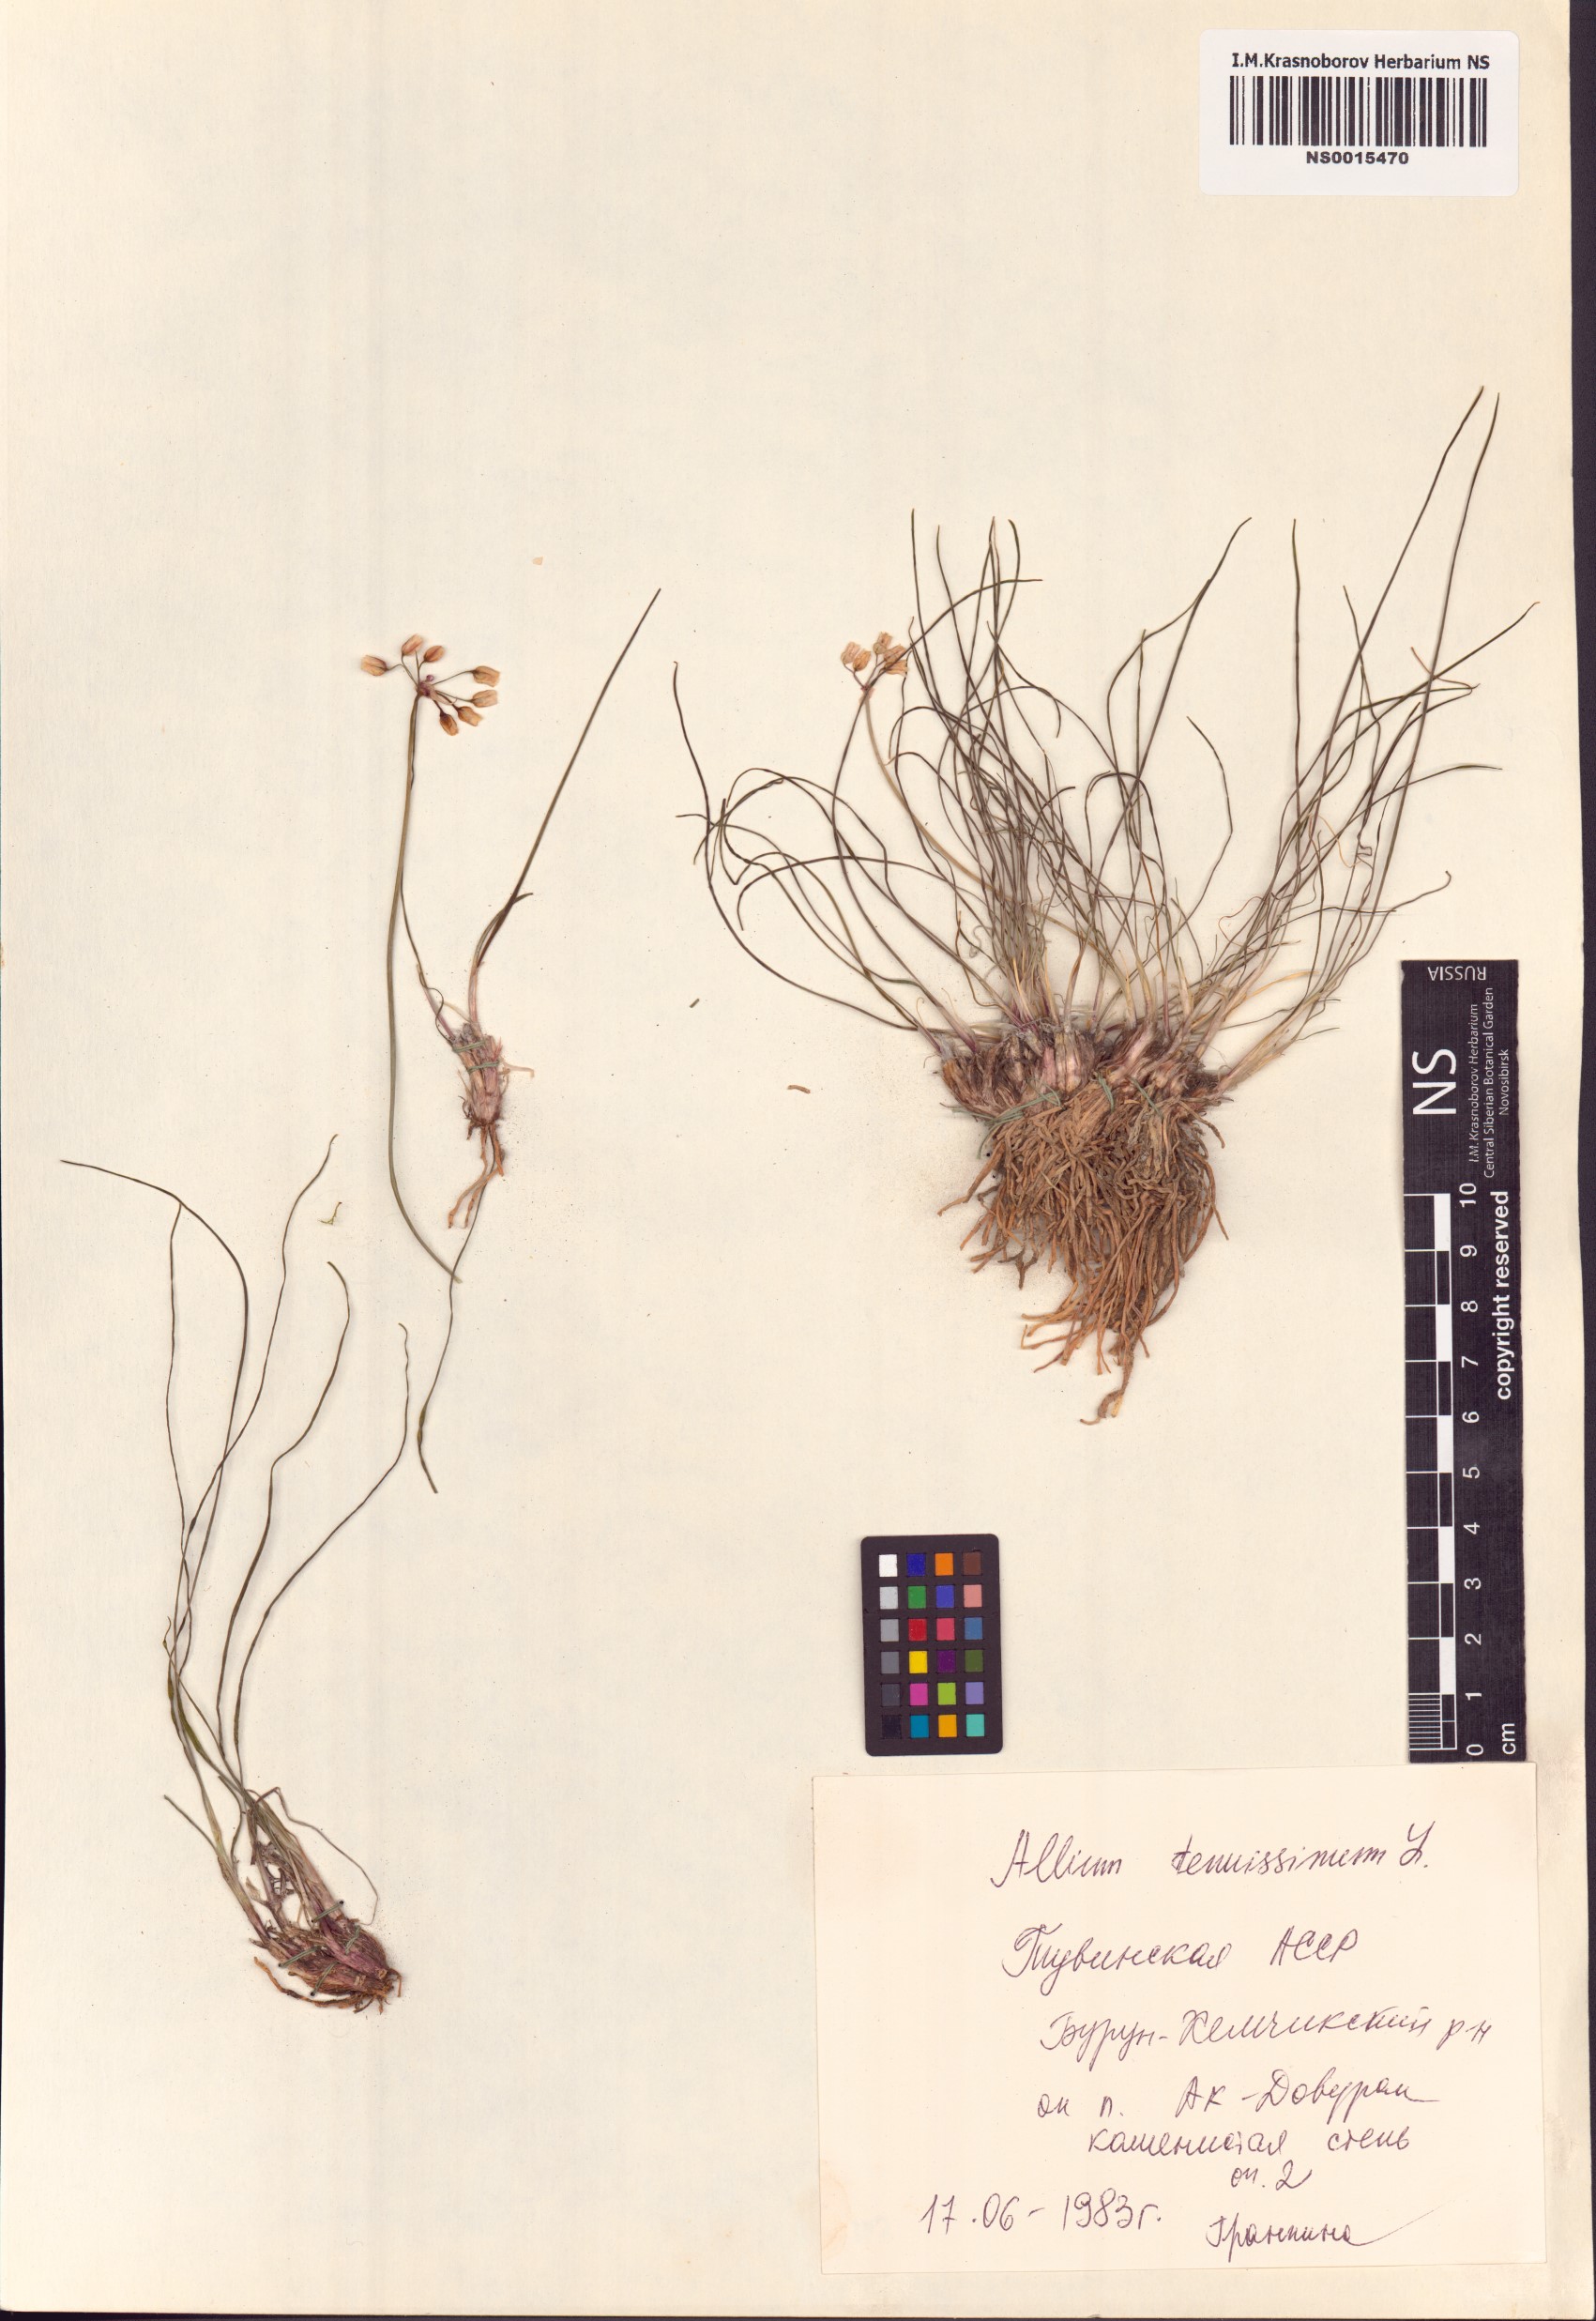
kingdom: Plantae
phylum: Tracheophyta
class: Liliopsida
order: Asparagales
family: Amaryllidaceae
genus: Allium
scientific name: Allium tenuissimum
